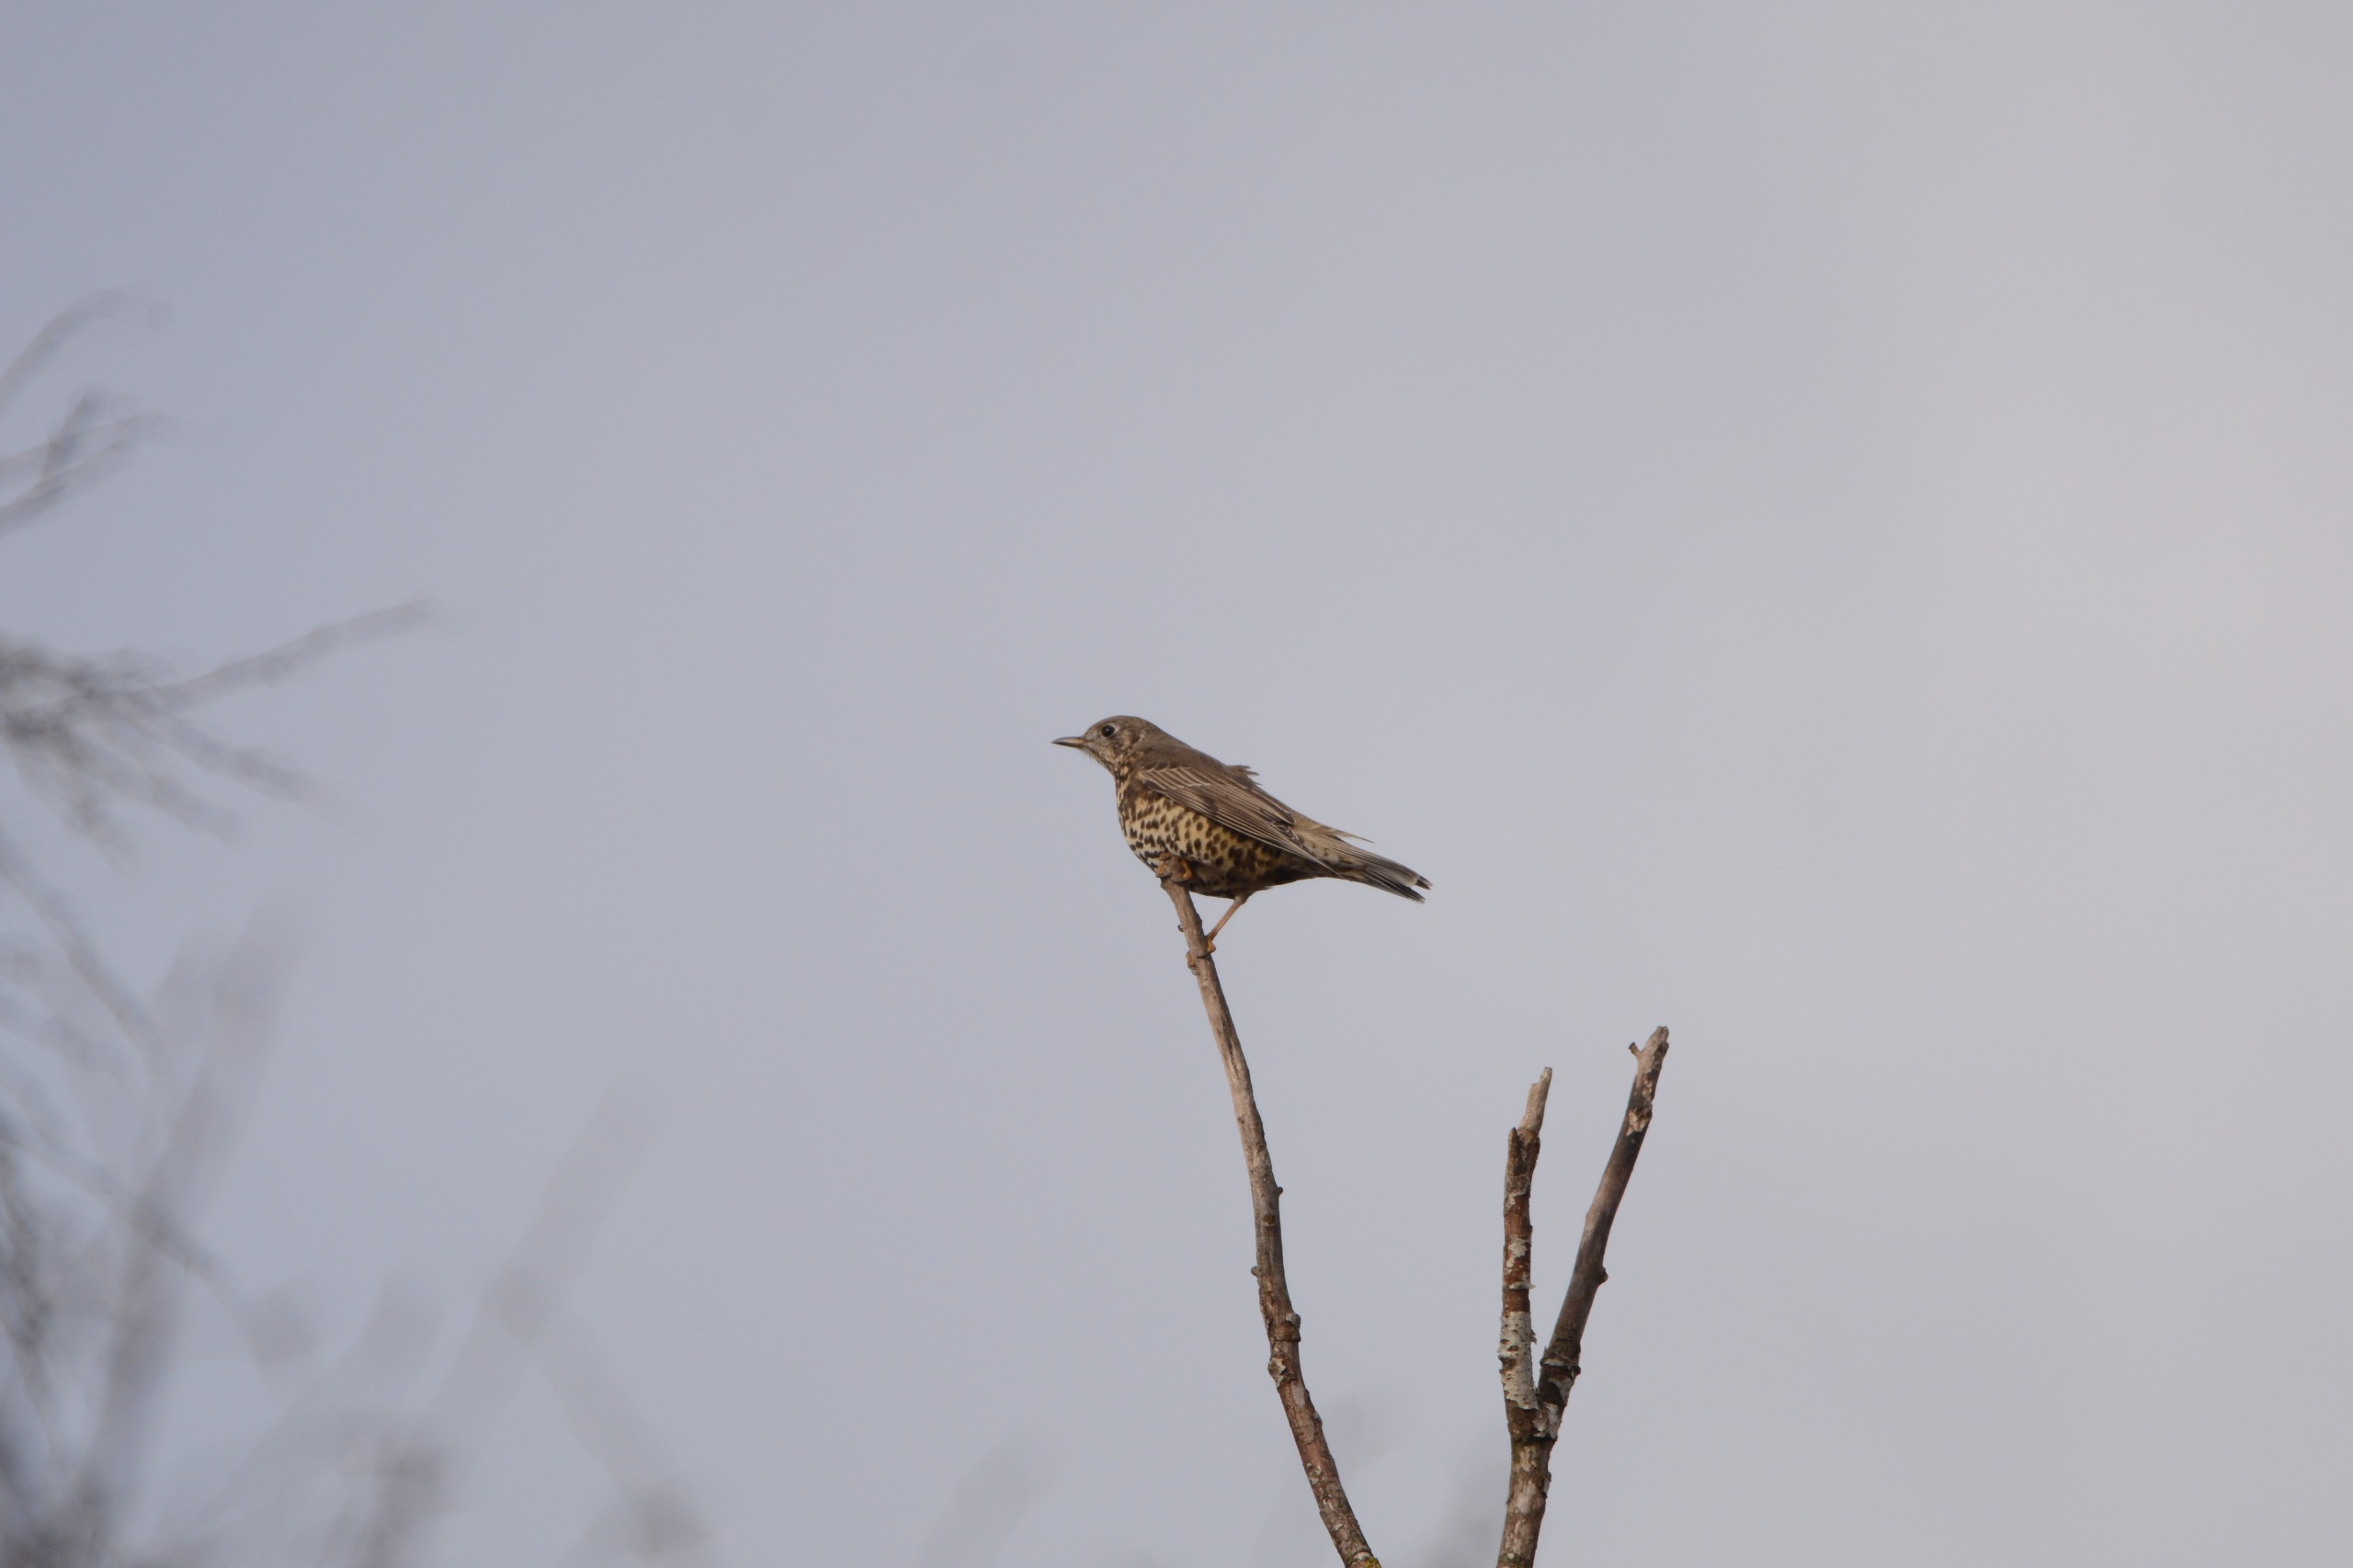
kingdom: Animalia
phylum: Chordata
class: Aves
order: Passeriformes
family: Turdidae
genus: Turdus
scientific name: Turdus viscivorus
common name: Misteldrossel
